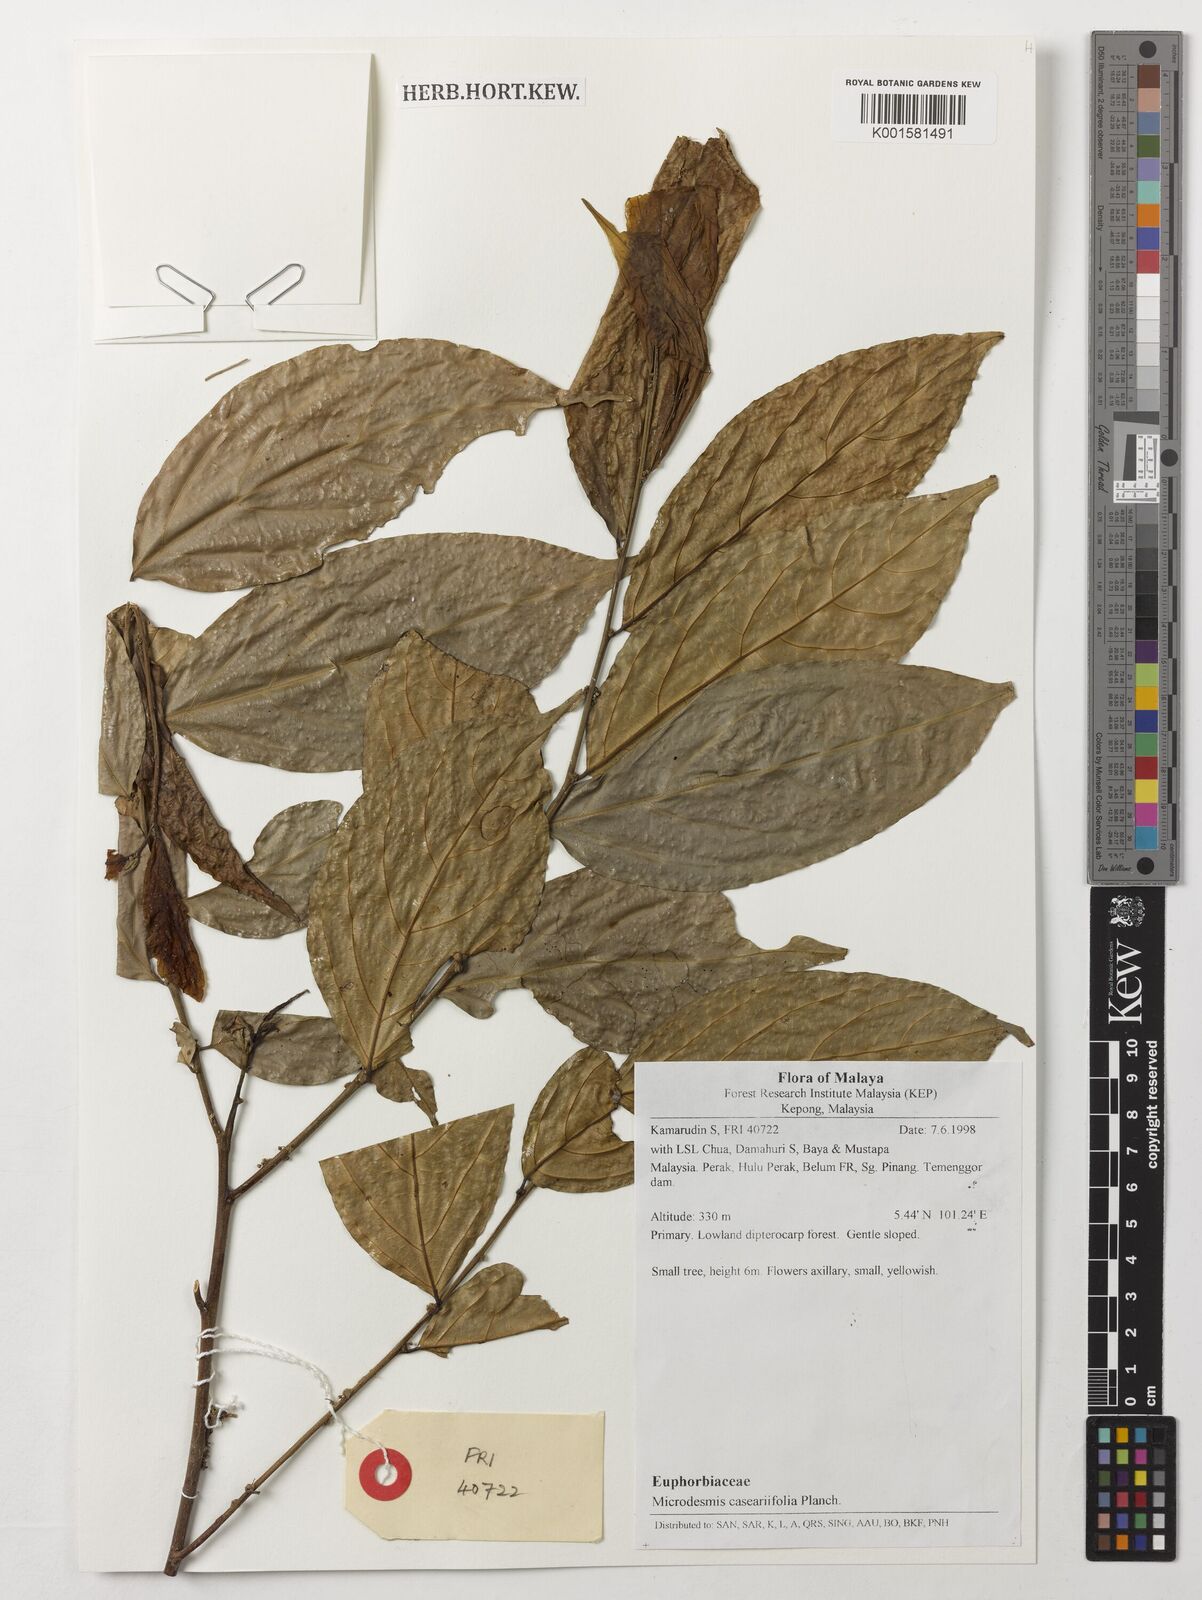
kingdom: Plantae
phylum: Tracheophyta
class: Magnoliopsida
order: Malpighiales
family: Pandaceae
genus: Microdesmis
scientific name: Microdesmis caseariifolia
